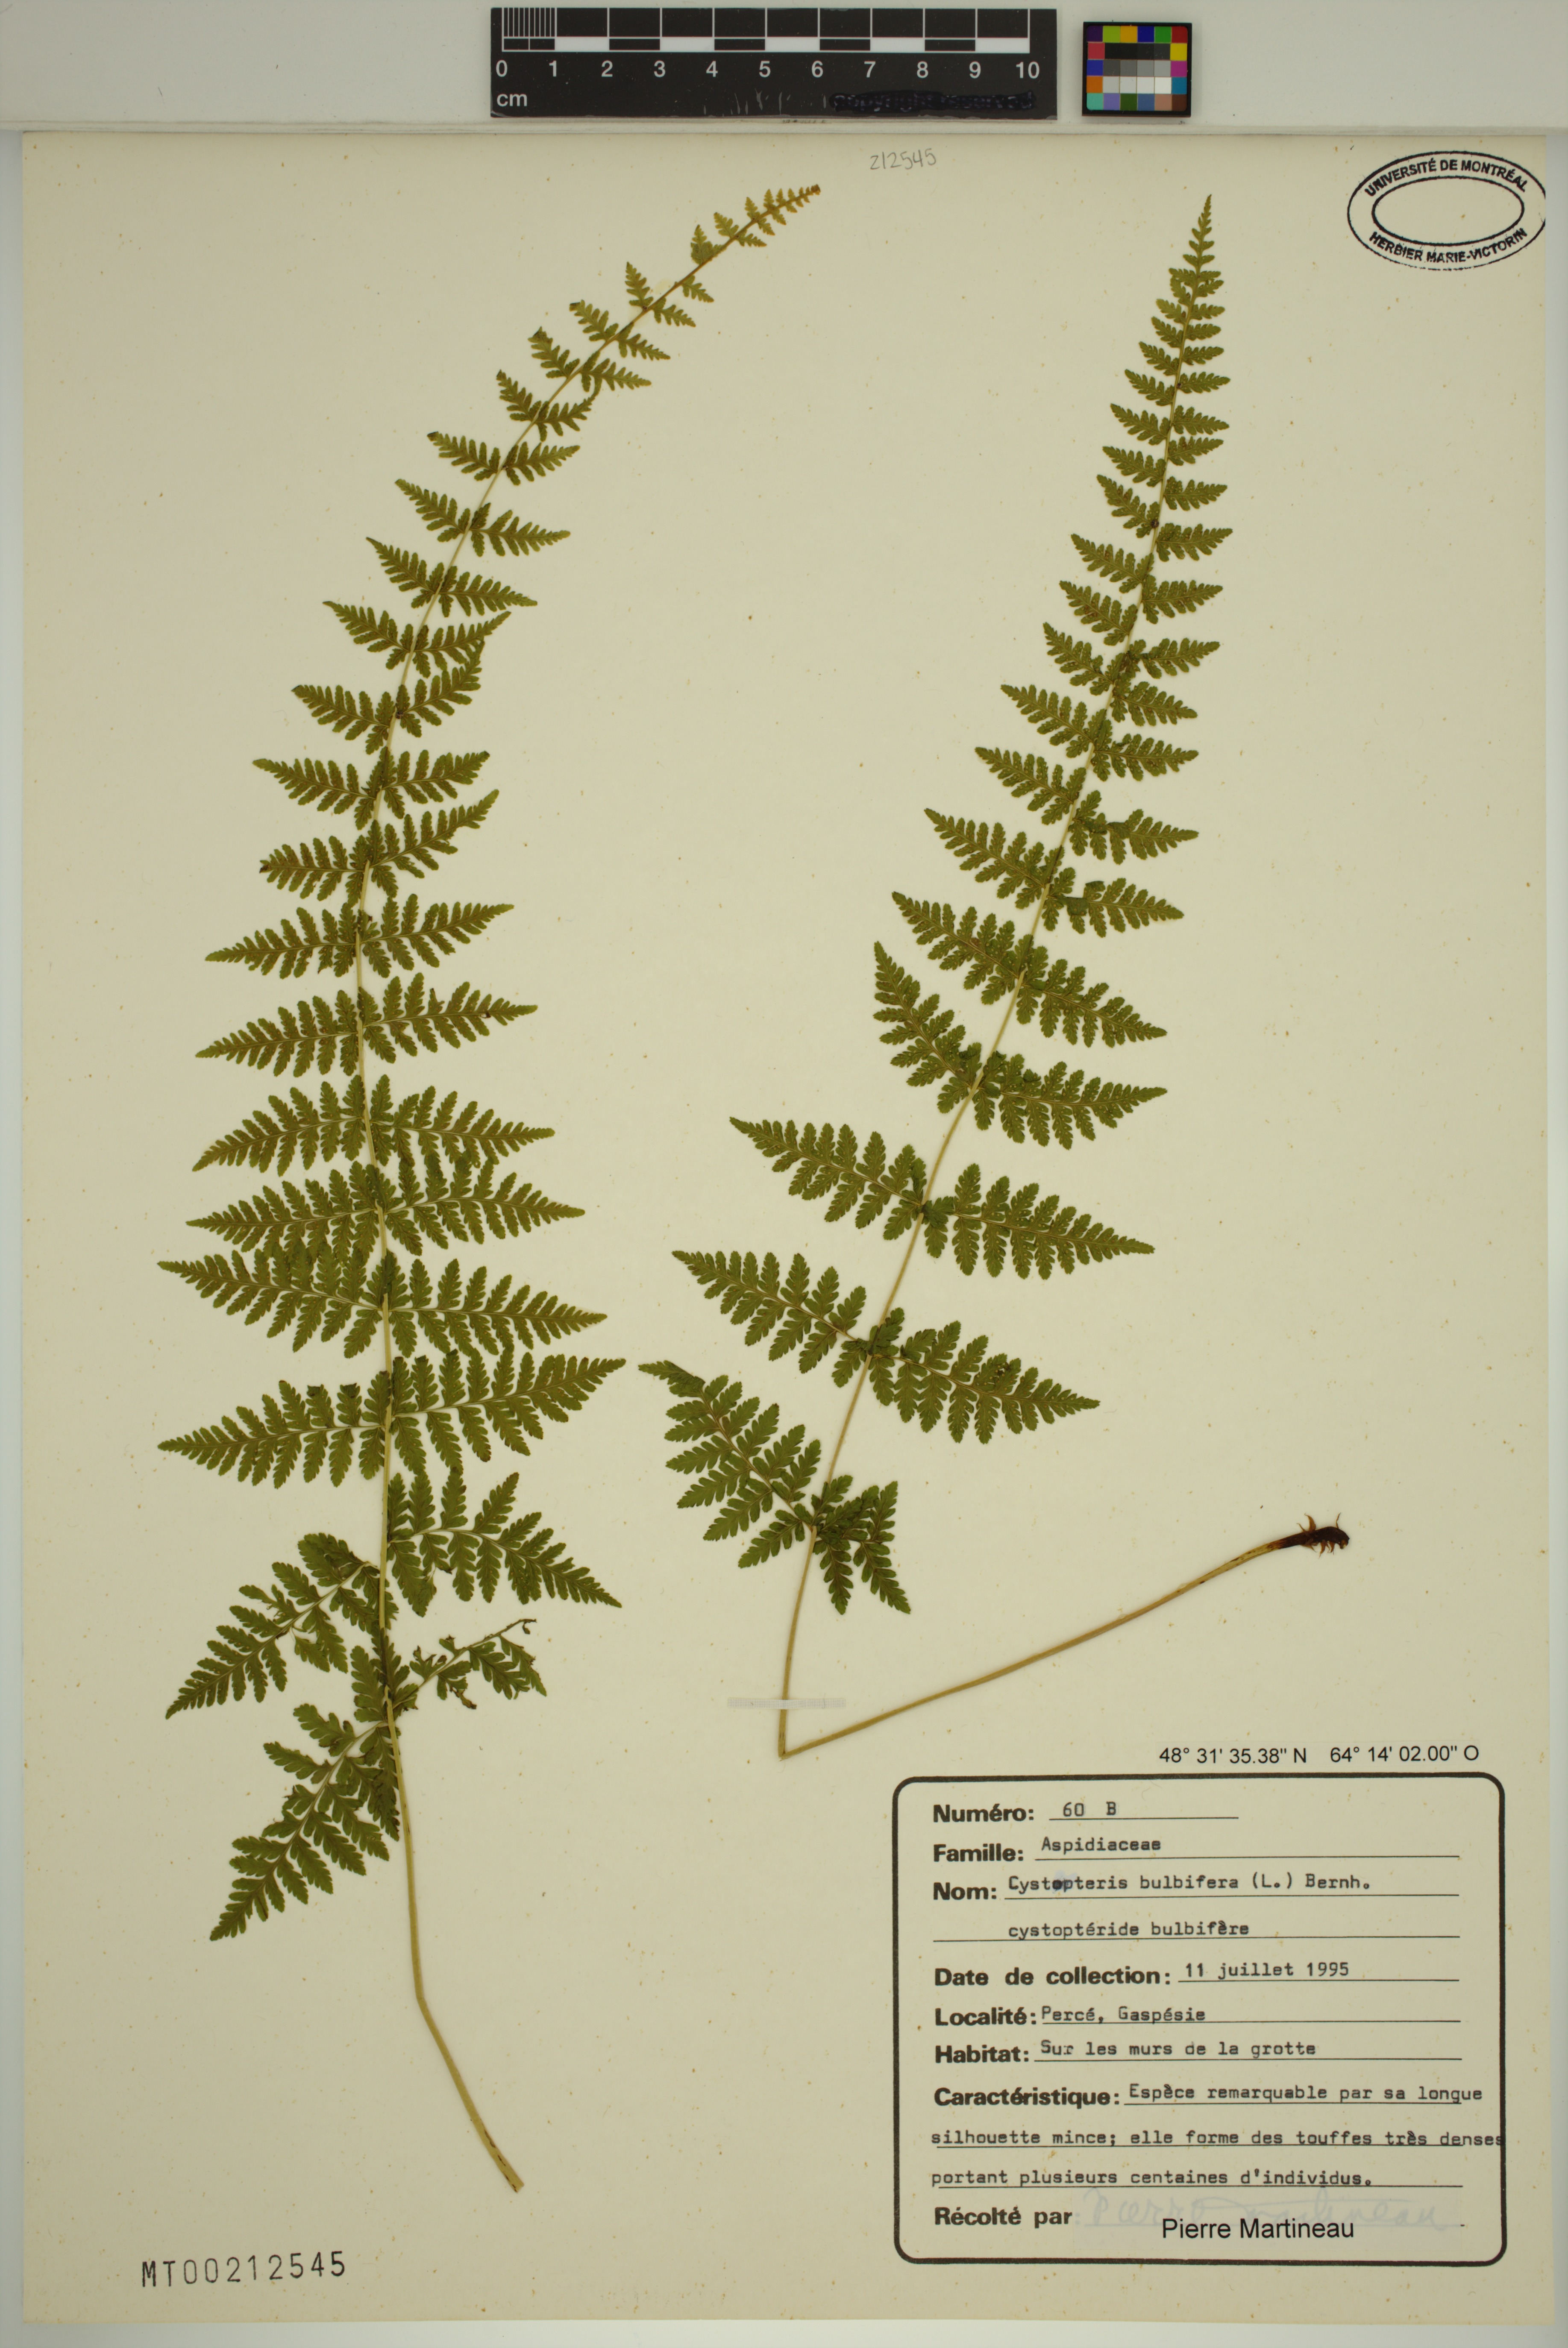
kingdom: Plantae
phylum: Tracheophyta
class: Polypodiopsida
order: Polypodiales
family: Cystopteridaceae
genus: Cystopteris
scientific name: Cystopteris bulbifera
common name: Bulblet bladder fern
